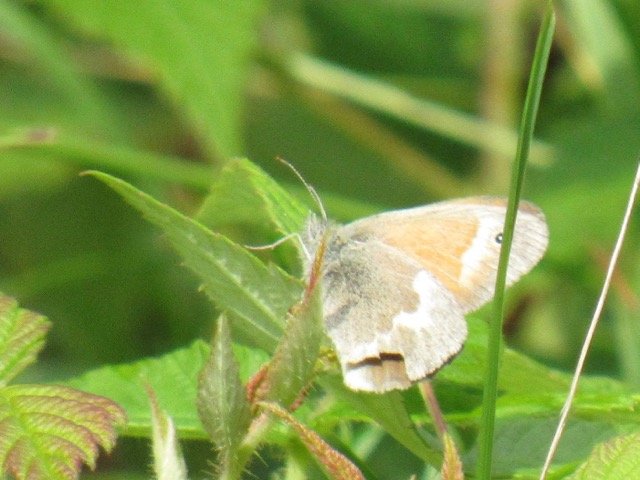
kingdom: Animalia
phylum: Arthropoda
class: Insecta
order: Lepidoptera
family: Nymphalidae
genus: Coenonympha
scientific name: Coenonympha tullia
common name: Large Heath
